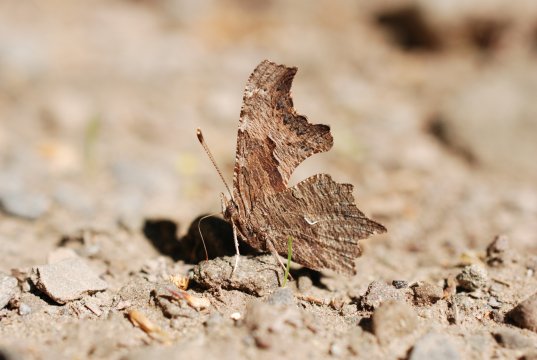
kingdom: Animalia
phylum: Arthropoda
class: Insecta
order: Lepidoptera
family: Nymphalidae
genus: Polygonia
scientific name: Polygonia progne
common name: Gray Comma
